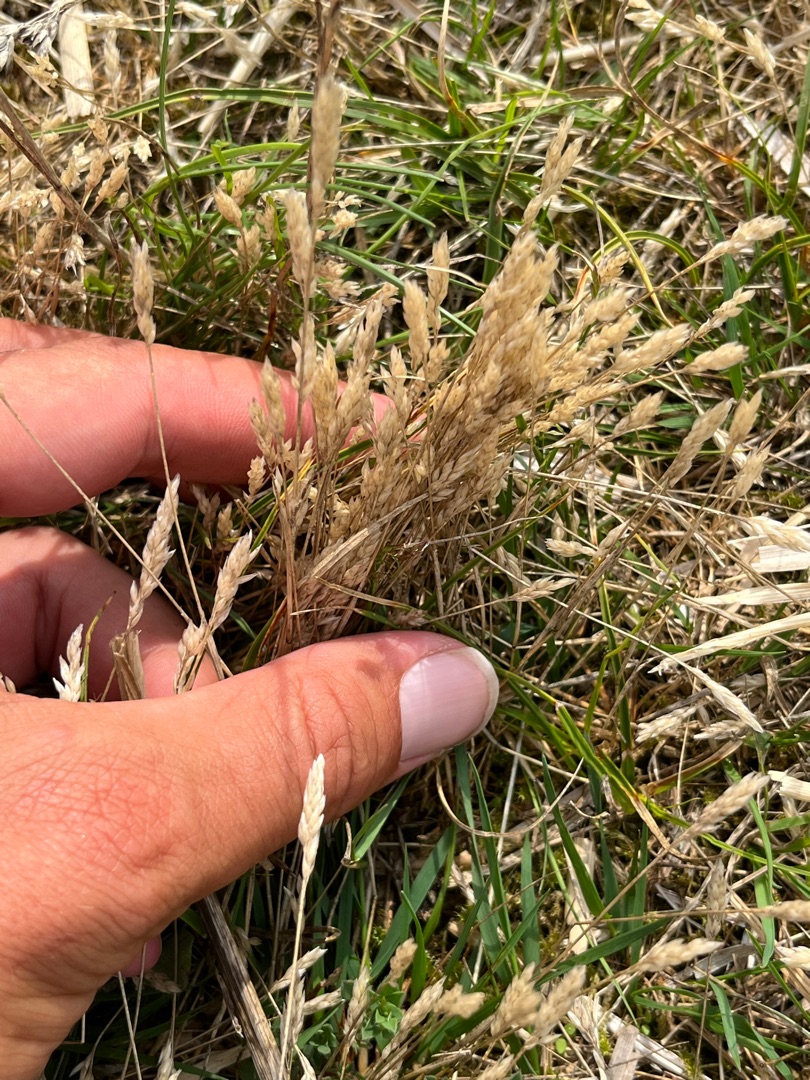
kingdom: Plantae
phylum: Tracheophyta
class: Liliopsida
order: Poales
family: Poaceae
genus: Aira
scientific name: Aira praecox
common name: Tidlig dværgbunke
